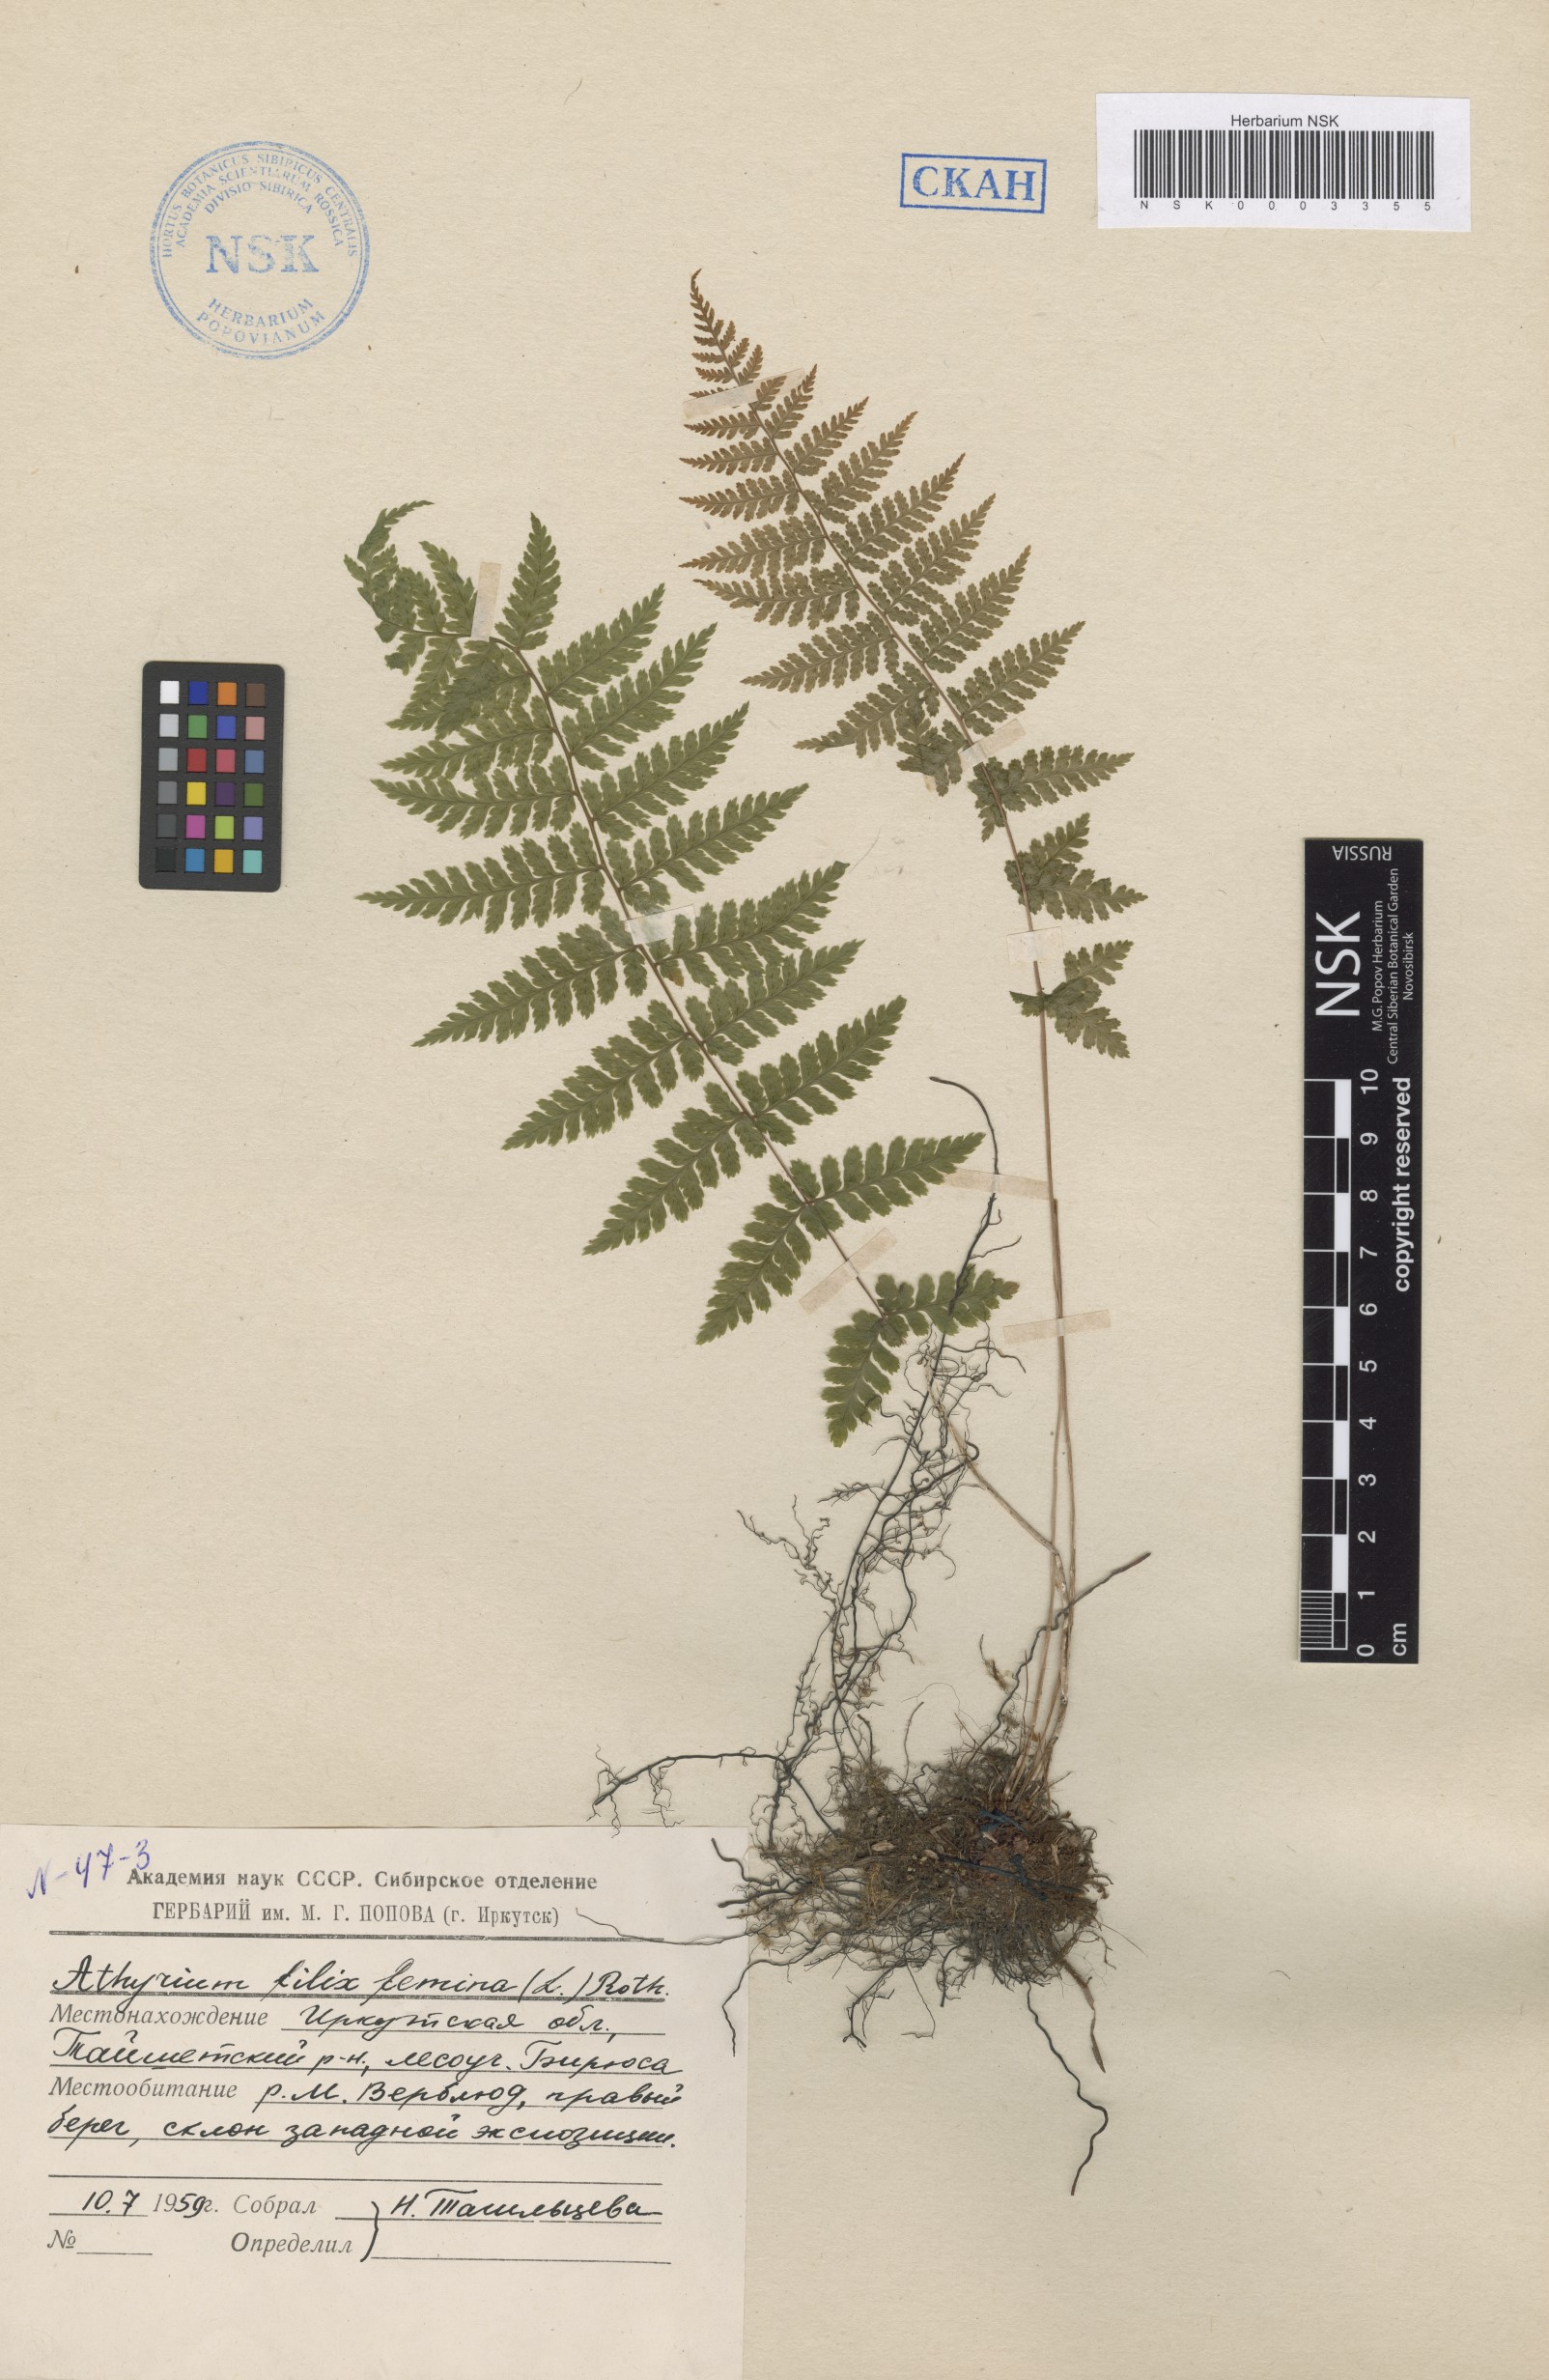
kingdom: Plantae
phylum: Tracheophyta
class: Polypodiopsida
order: Polypodiales
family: Athyriaceae
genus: Athyrium
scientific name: Athyrium filix-femina
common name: Lady fern
